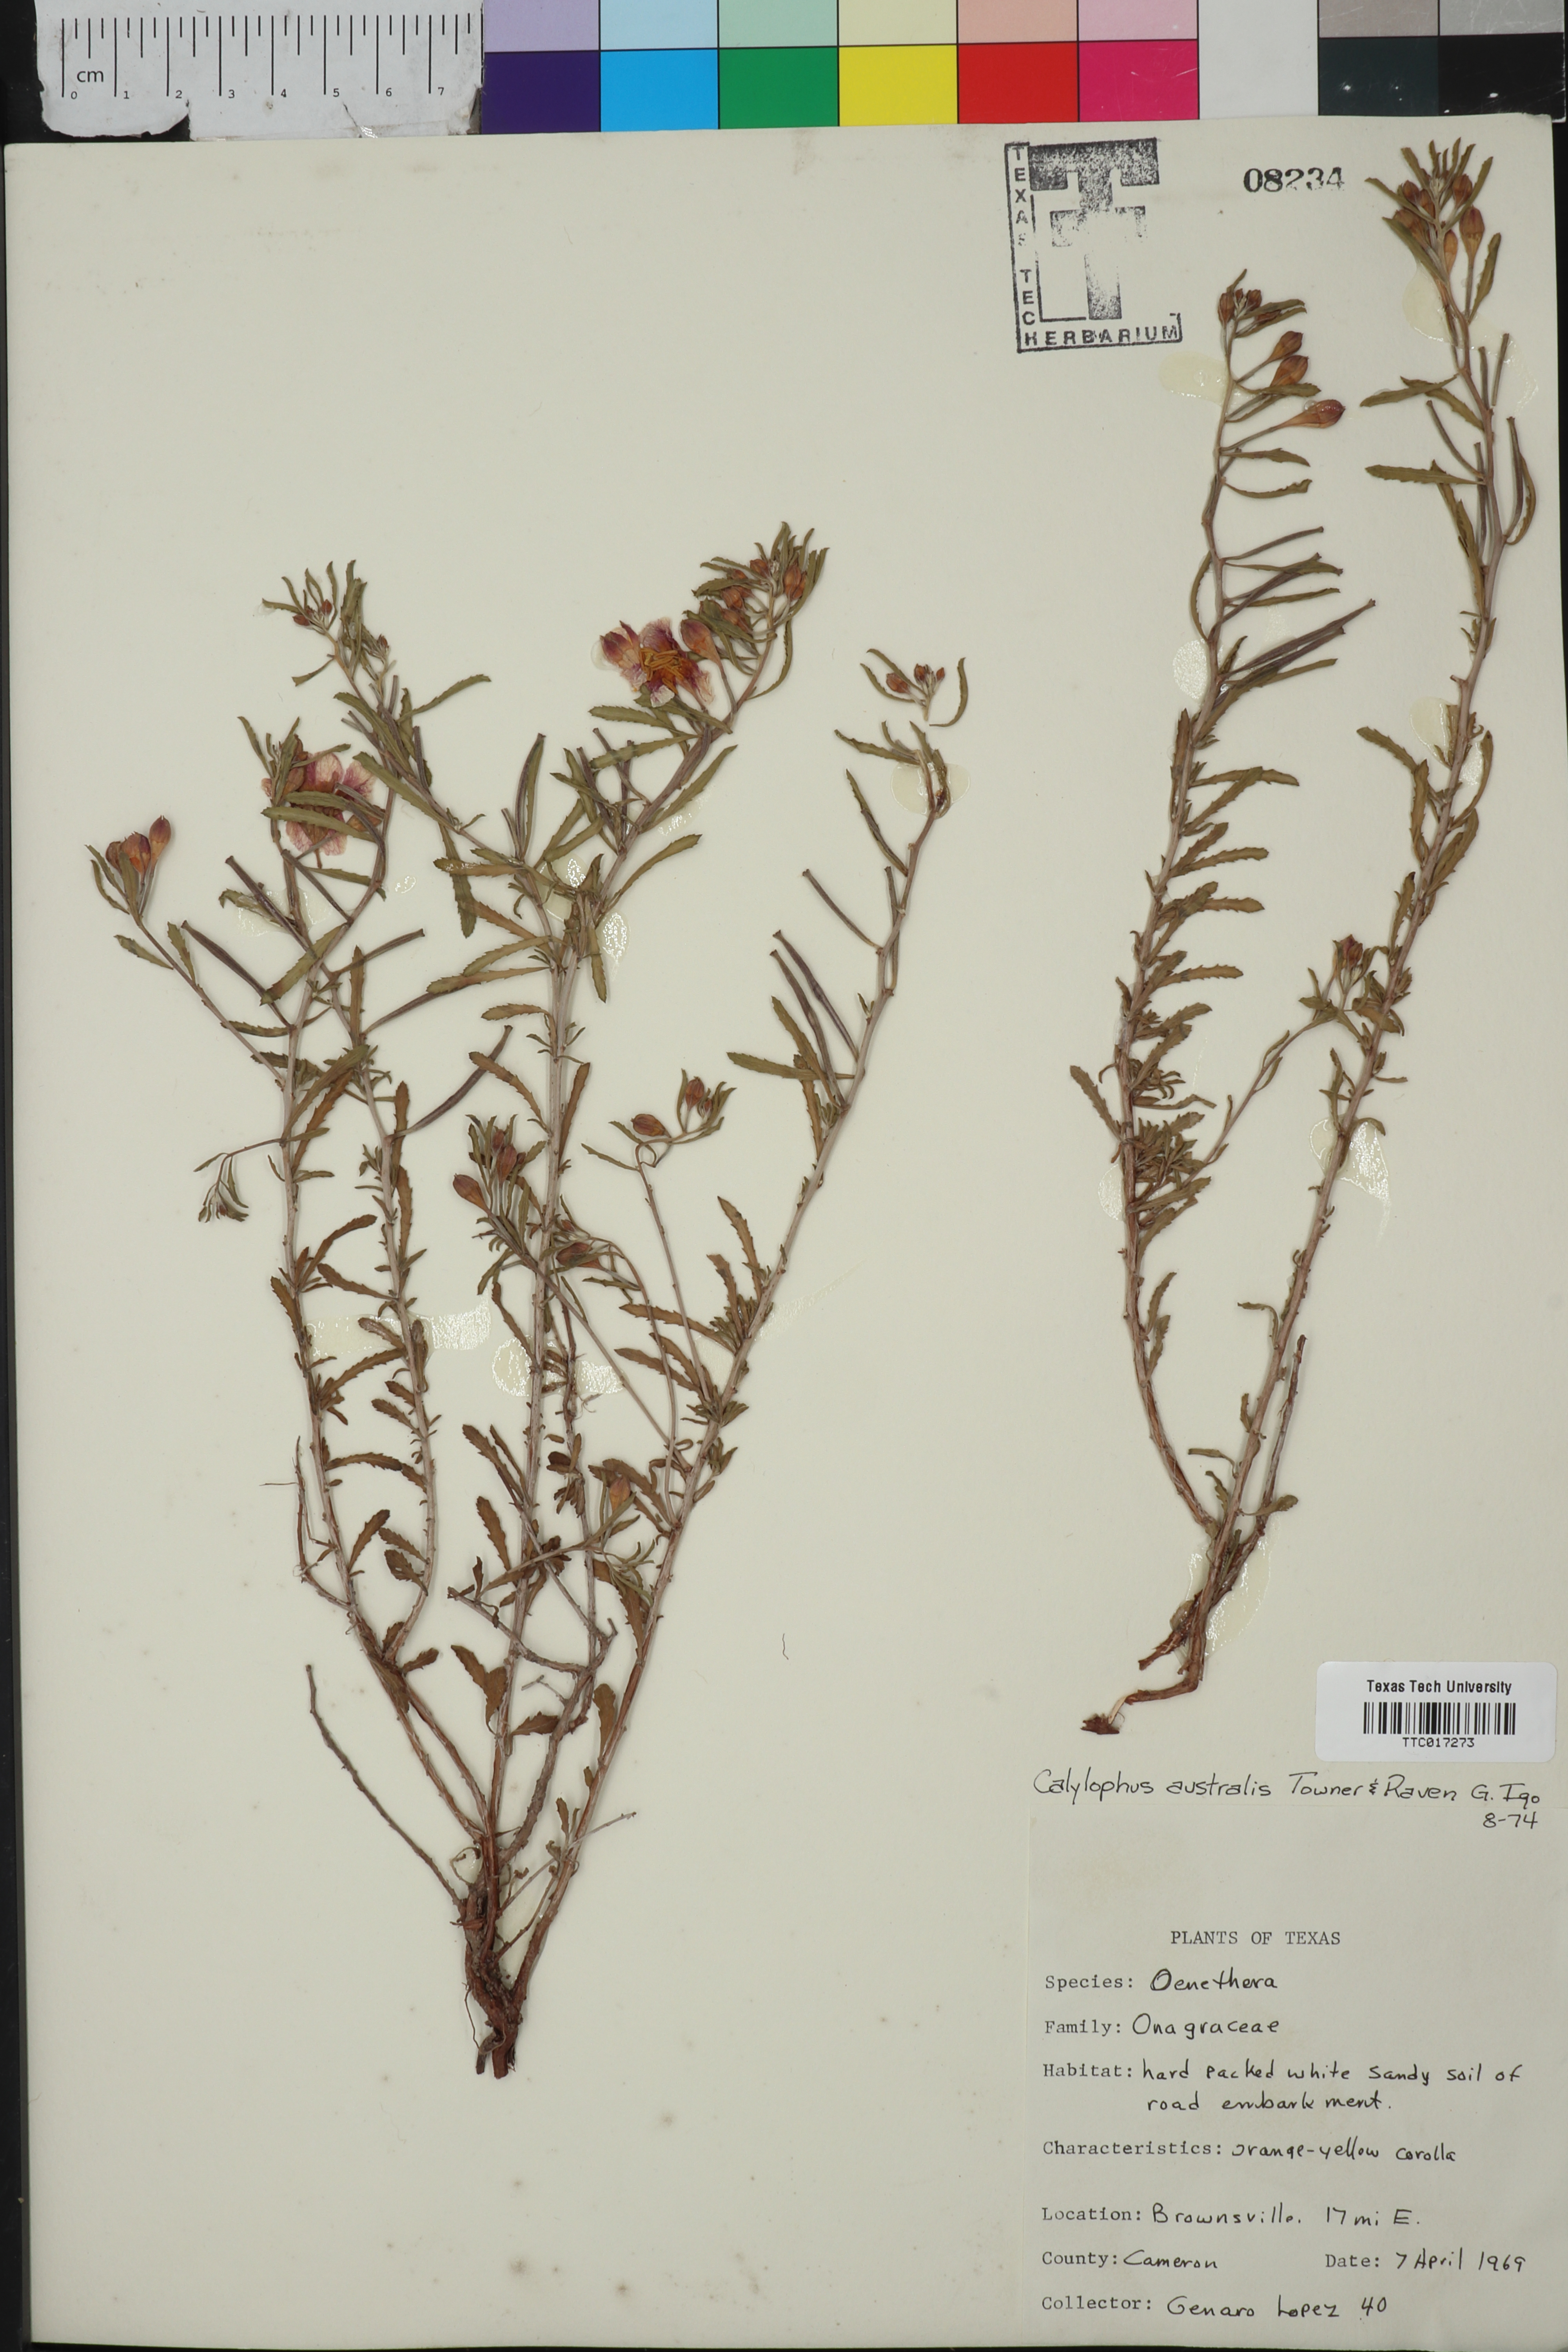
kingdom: Plantae
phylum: Tracheophyta
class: Magnoliopsida
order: Myrtales
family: Onagraceae
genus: Oenothera
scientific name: Oenothera serrulata
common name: Half-shrub calylophus
